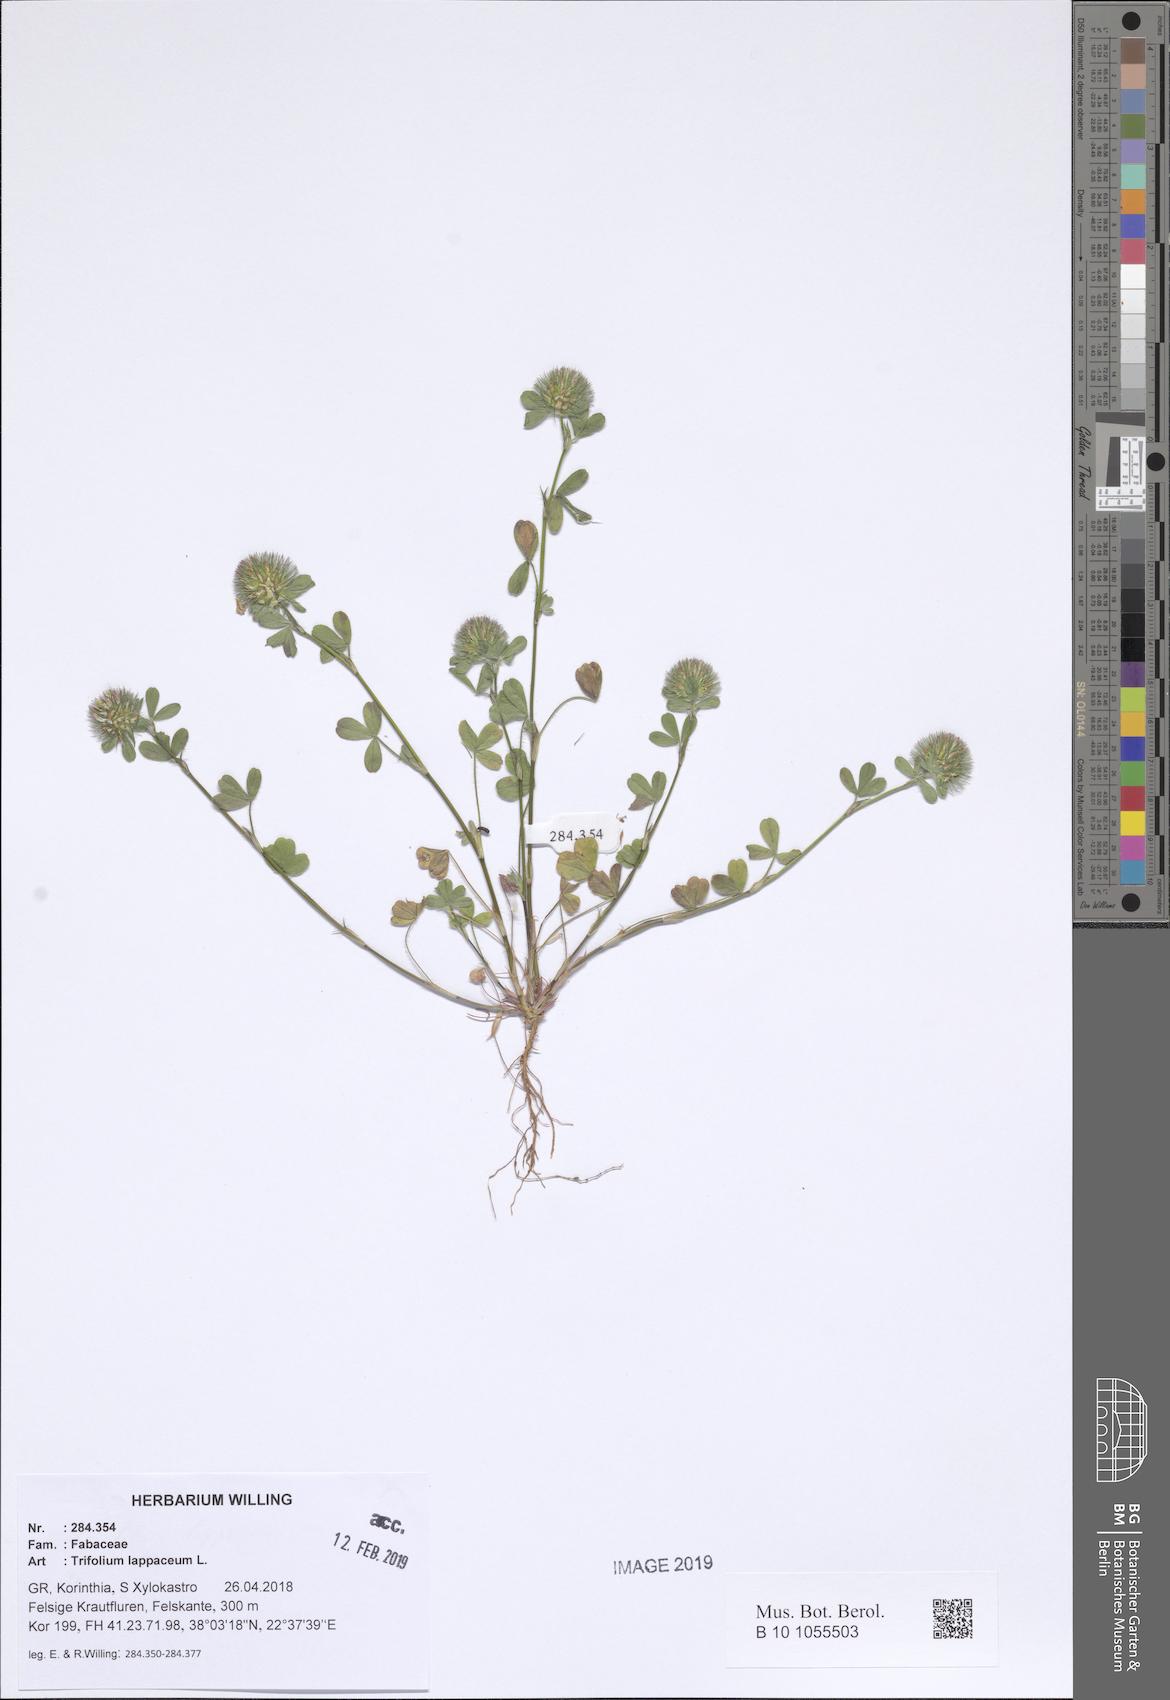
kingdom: Plantae
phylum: Tracheophyta
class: Magnoliopsida
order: Fabales
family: Fabaceae
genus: Trifolium
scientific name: Trifolium lappaceum
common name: Bur clover
